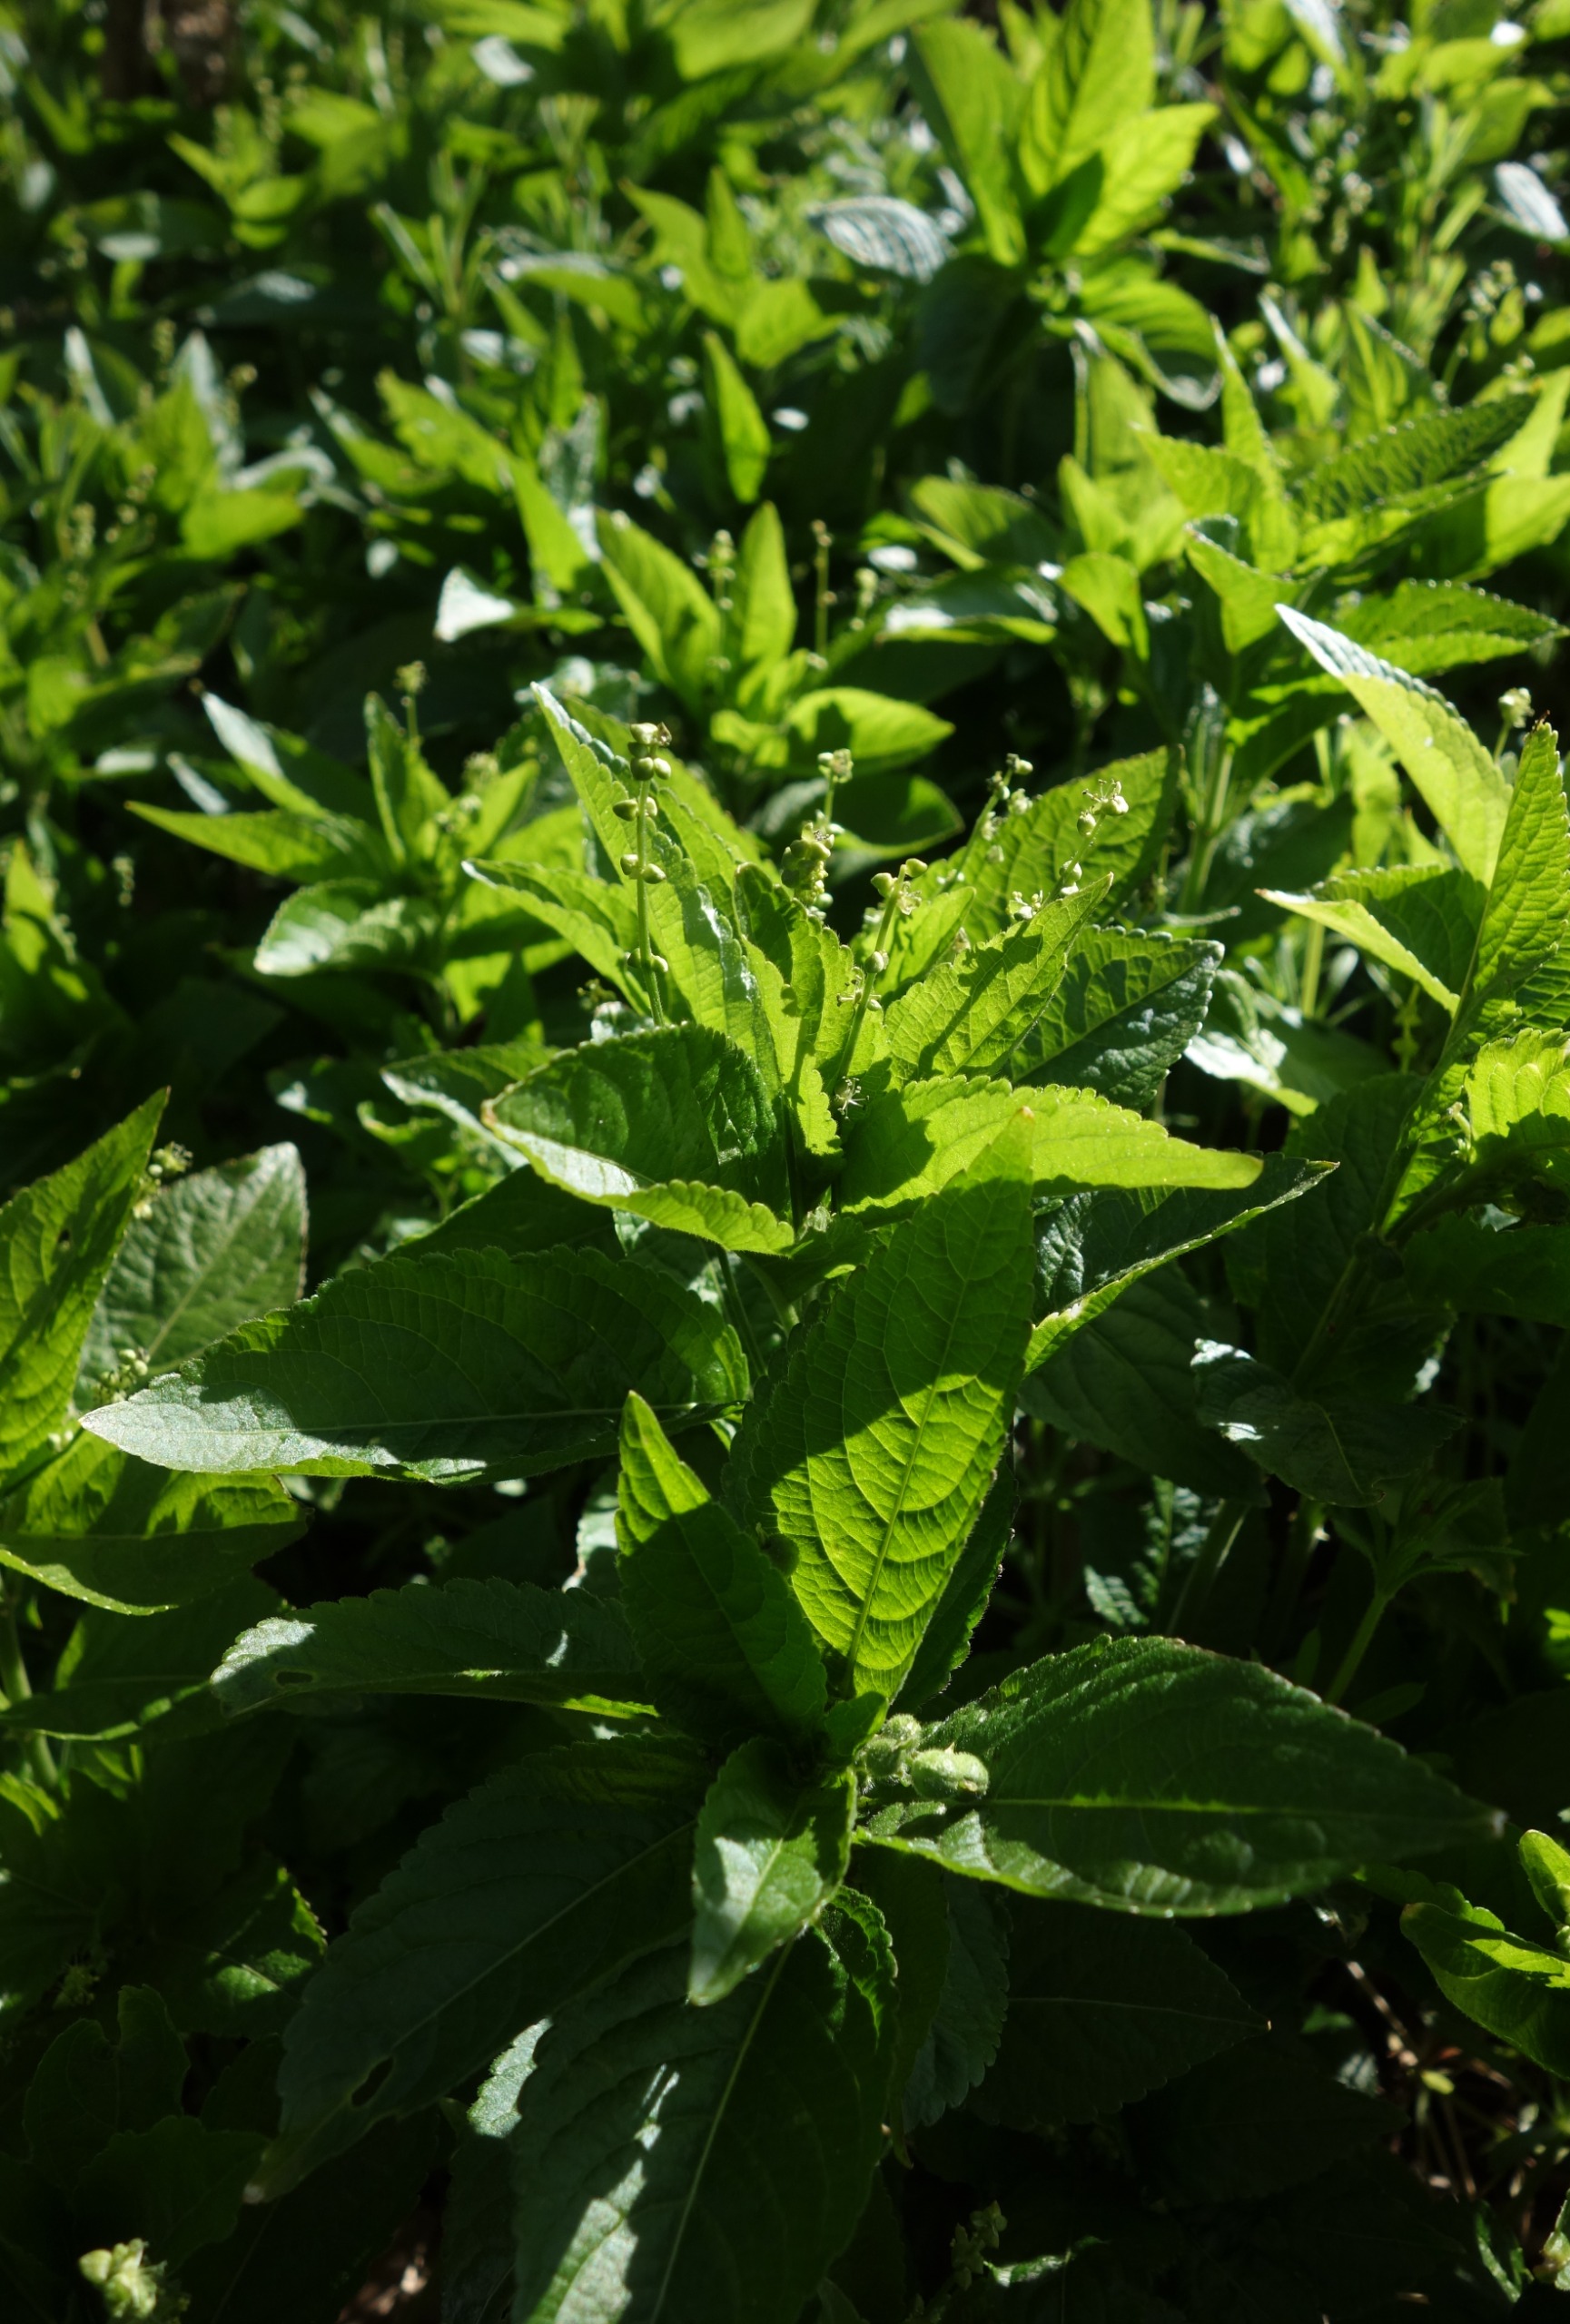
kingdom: Plantae
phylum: Tracheophyta
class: Magnoliopsida
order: Malpighiales
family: Euphorbiaceae
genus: Mercurialis
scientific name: Mercurialis perennis
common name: Almindelig bingelurt
